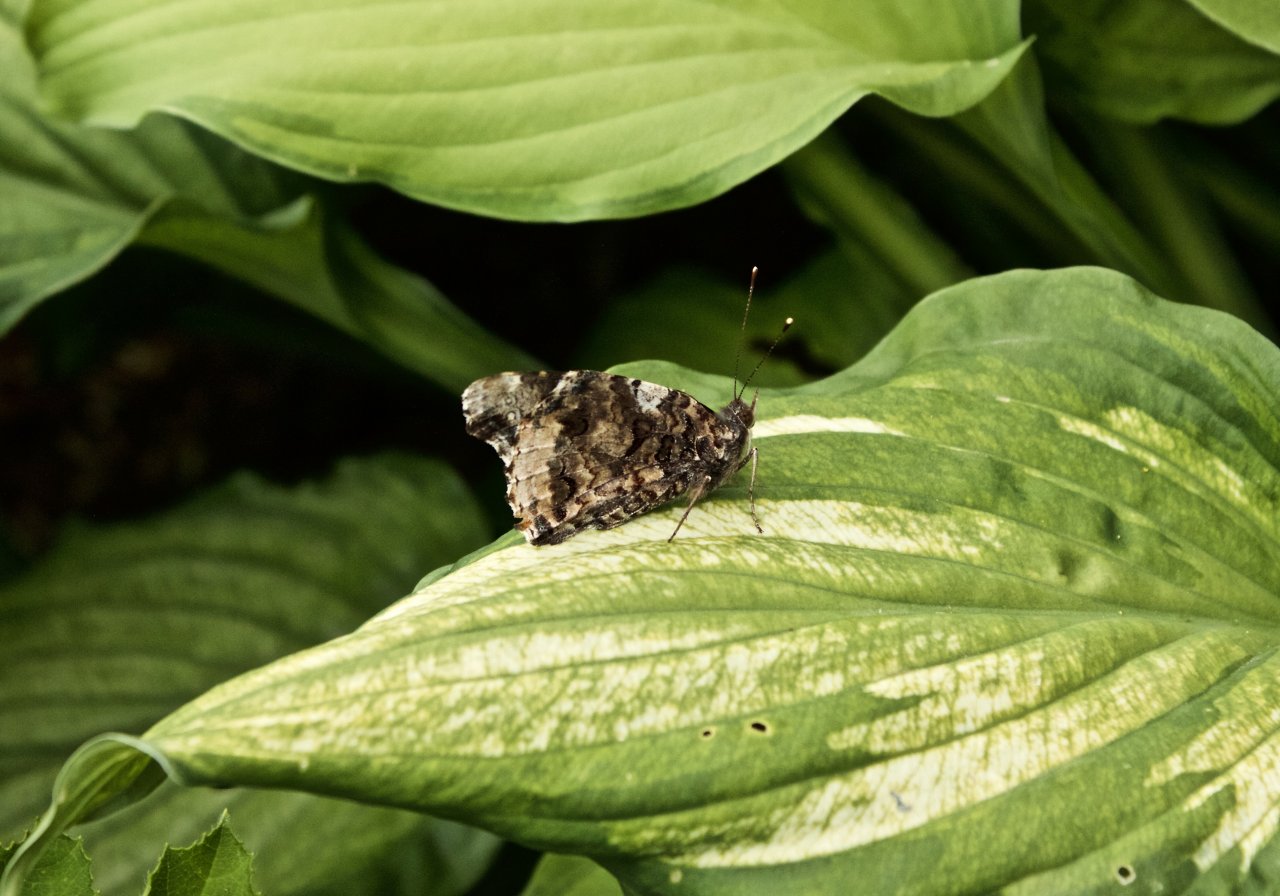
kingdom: Animalia
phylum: Arthropoda
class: Insecta
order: Lepidoptera
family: Nymphalidae
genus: Vanessa
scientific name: Vanessa atalanta
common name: Red Admiral
